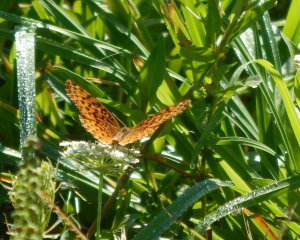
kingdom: Animalia
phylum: Arthropoda
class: Insecta
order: Lepidoptera
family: Nymphalidae
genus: Clossiana
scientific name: Clossiana toddi
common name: Meadow Fritillary
